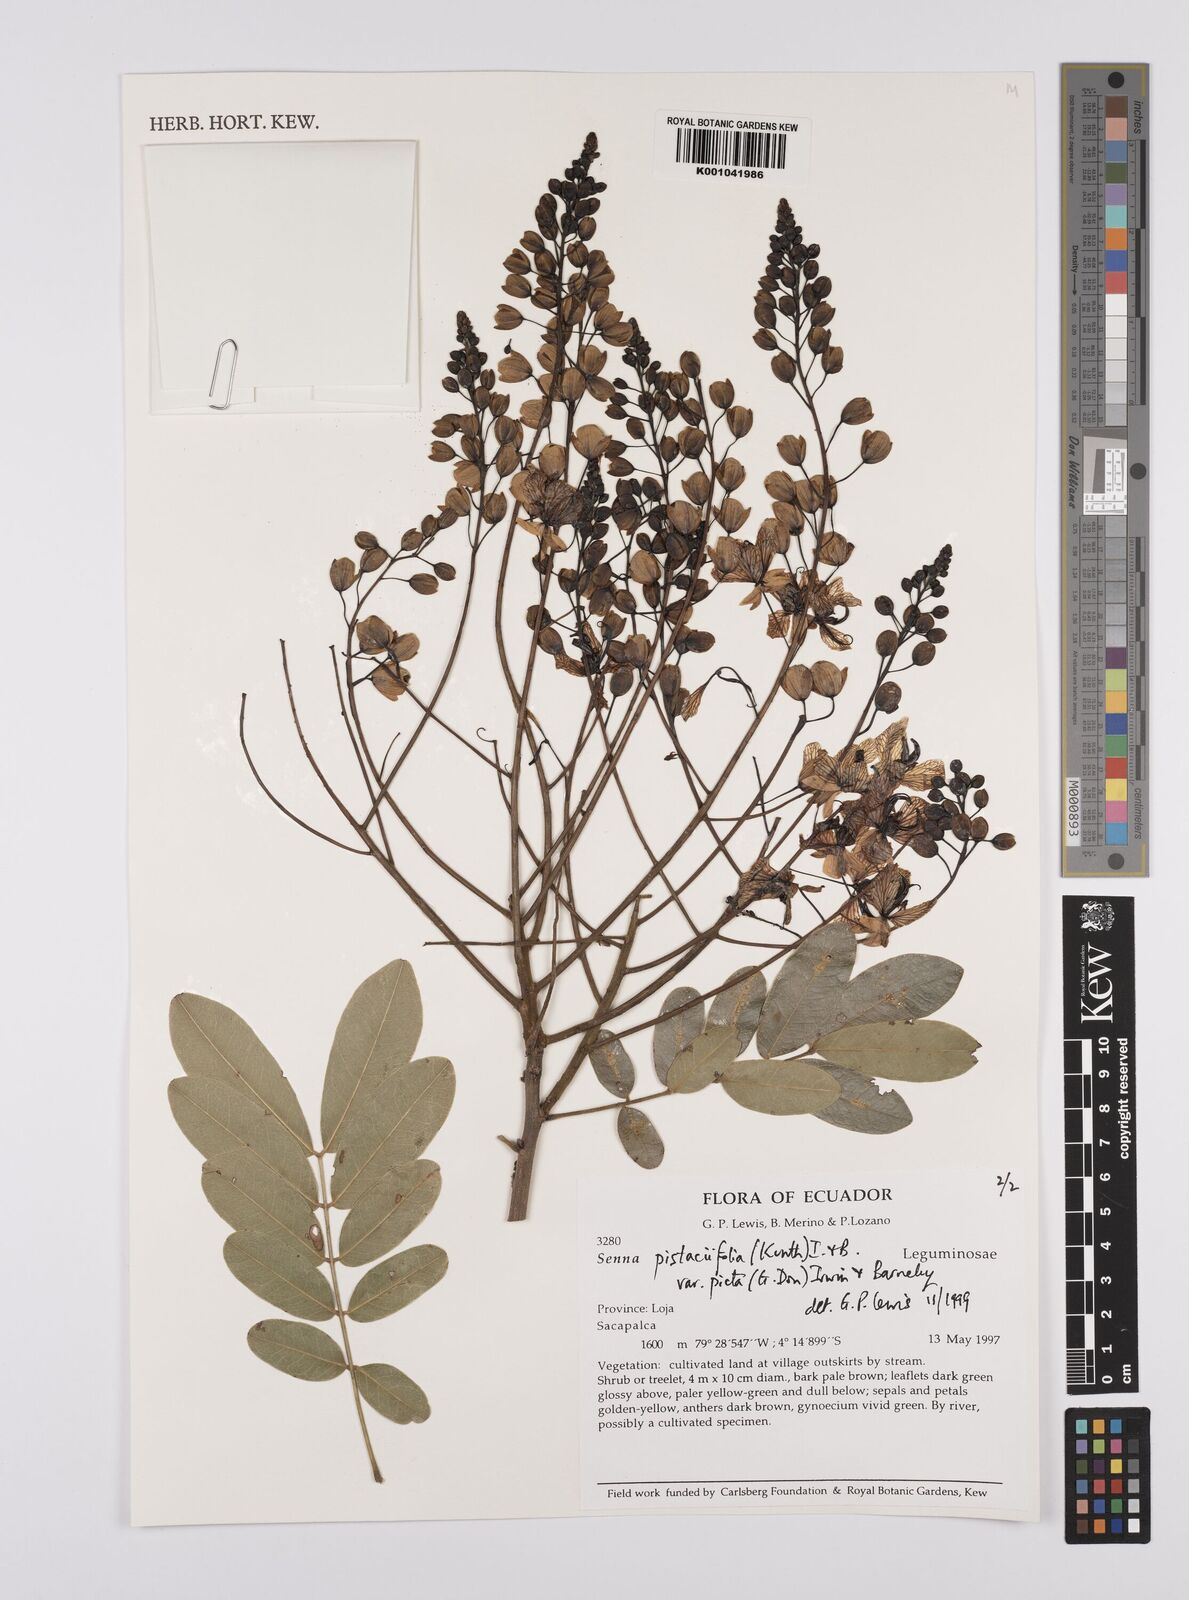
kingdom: Plantae
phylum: Tracheophyta
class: Magnoliopsida
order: Fabales
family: Fabaceae
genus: Senna
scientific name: Senna pistaciifolia
